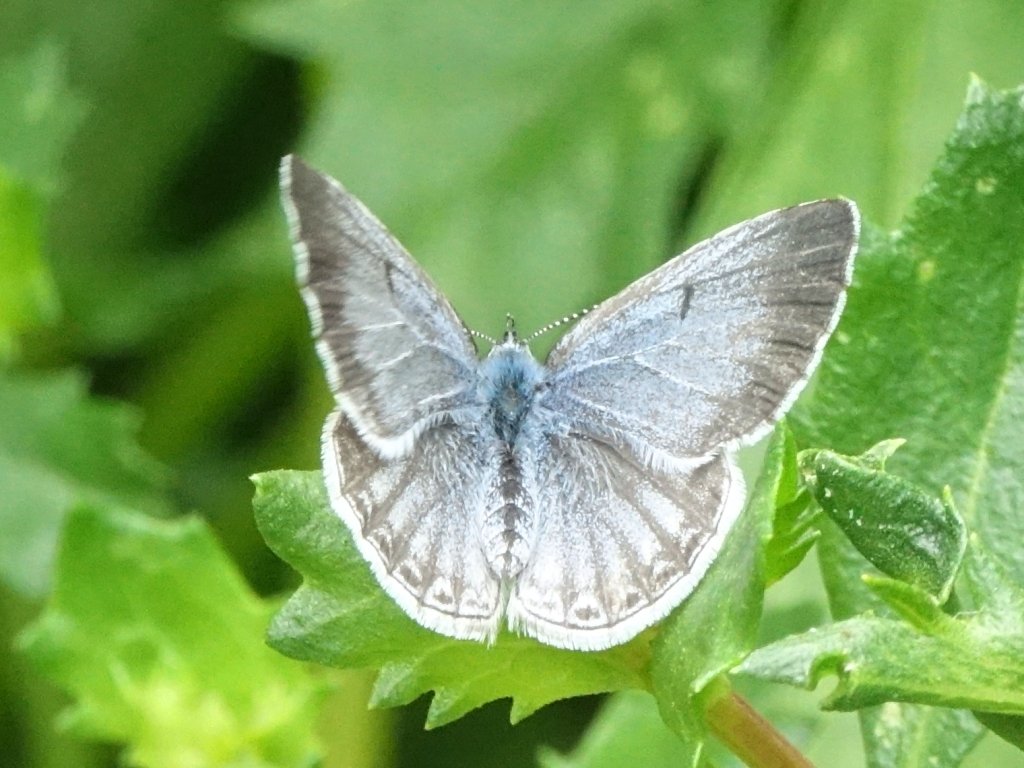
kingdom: Animalia
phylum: Arthropoda
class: Insecta
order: Lepidoptera
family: Lycaenidae
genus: Celastrina
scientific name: Celastrina ladon
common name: Spring Azure
